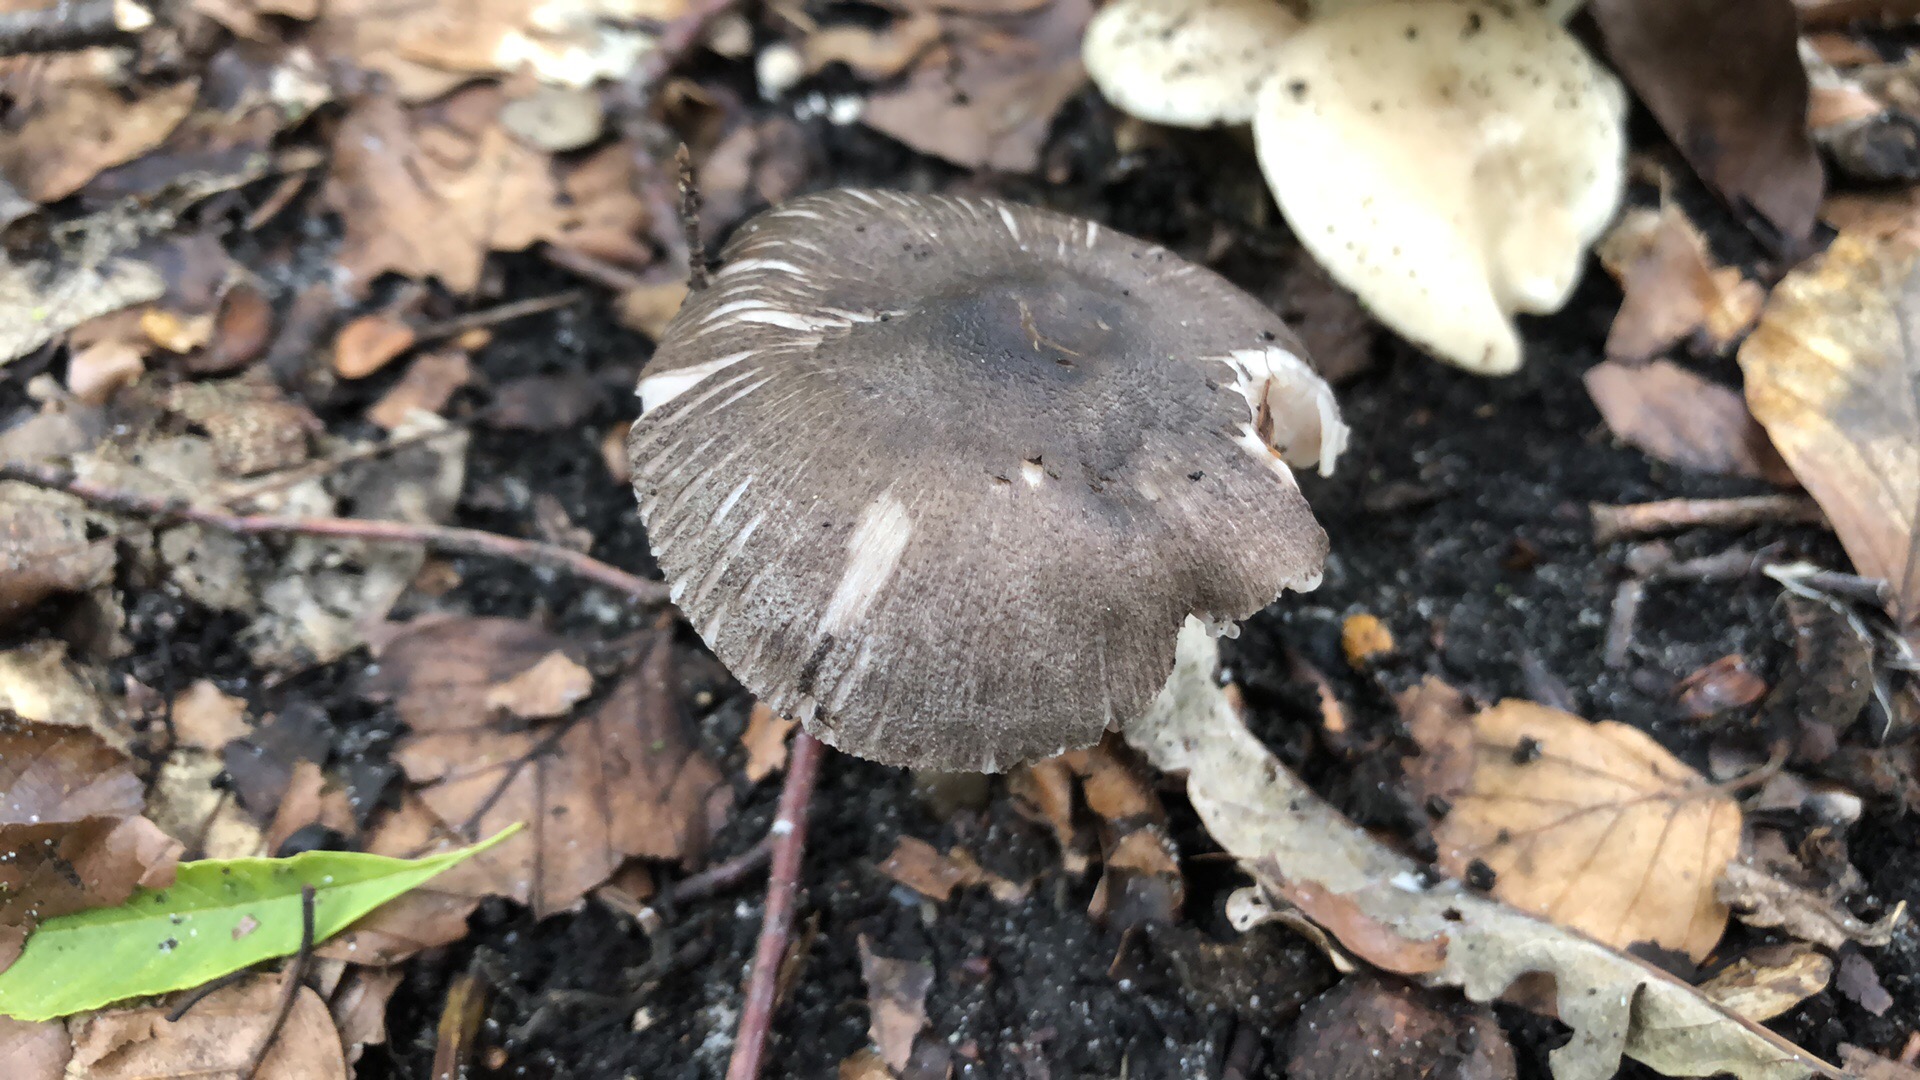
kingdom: Fungi
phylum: Basidiomycota
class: Agaricomycetes
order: Agaricales
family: Pluteaceae
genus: Pluteus
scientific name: Pluteus
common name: gråfibret skærmhat
